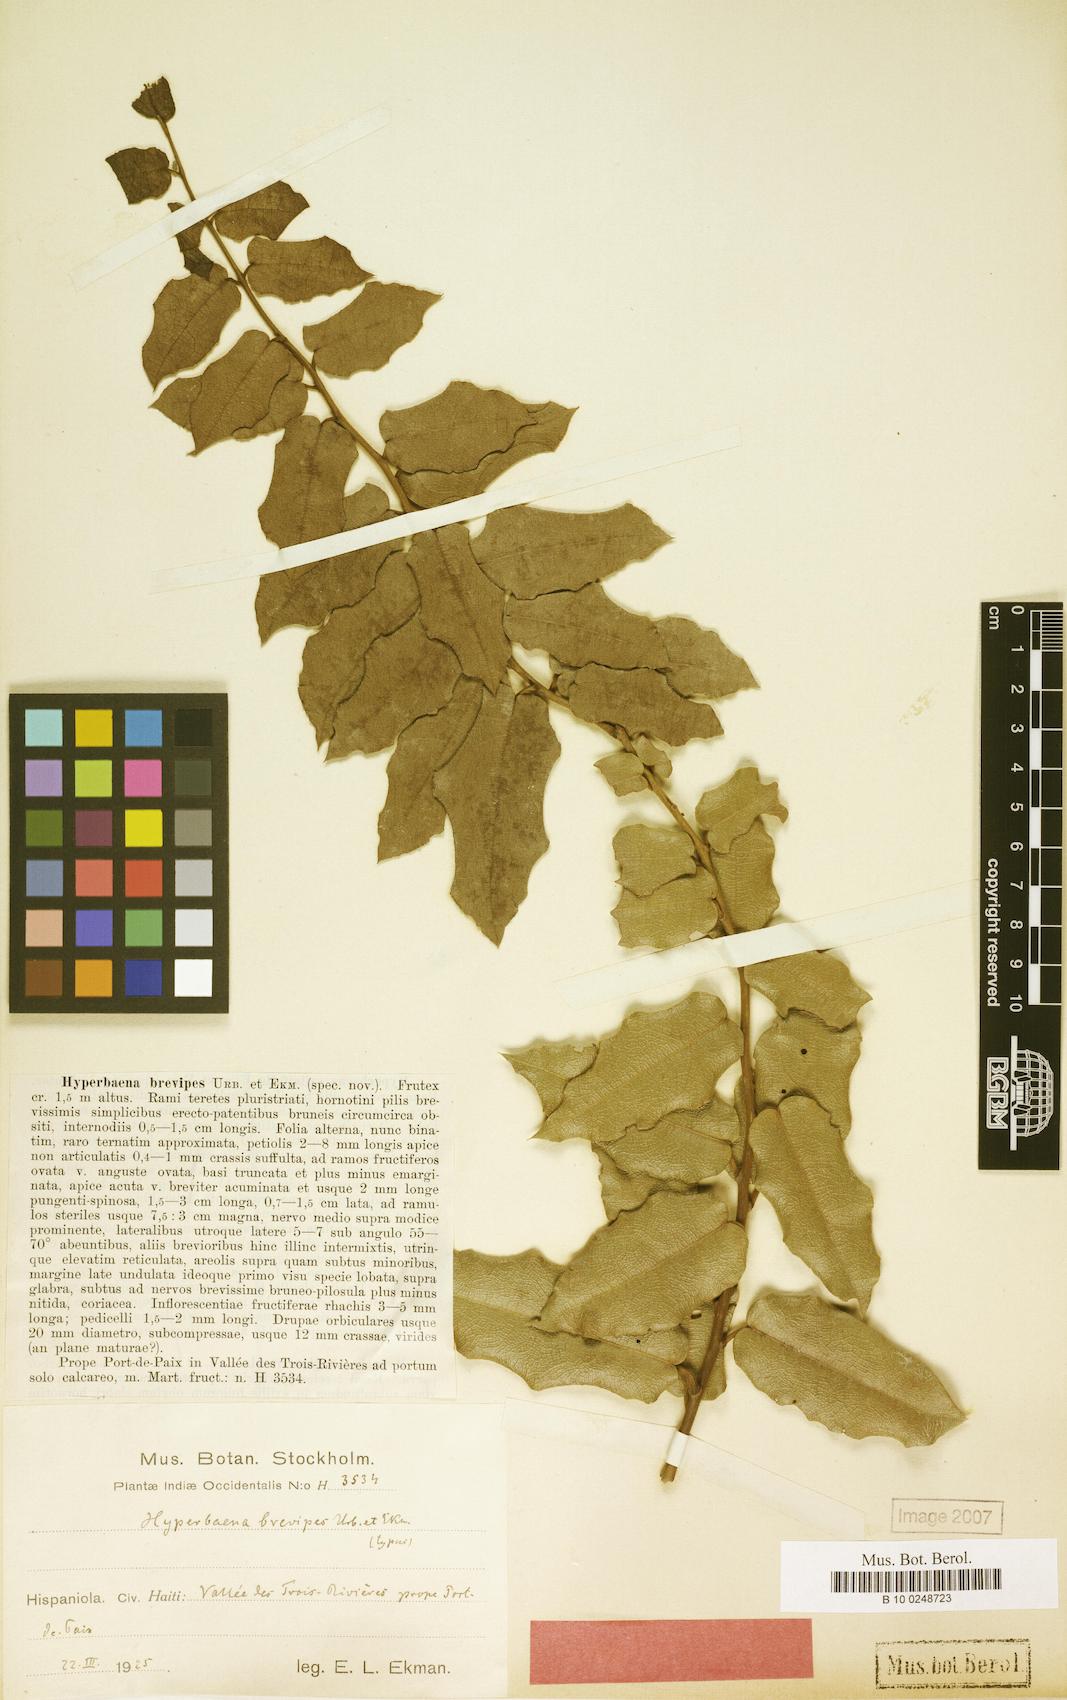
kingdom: Plantae
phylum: Tracheophyta
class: Magnoliopsida
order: Ranunculales
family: Menispermaceae
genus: Hyperbaena
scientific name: Hyperbaena brevipes
